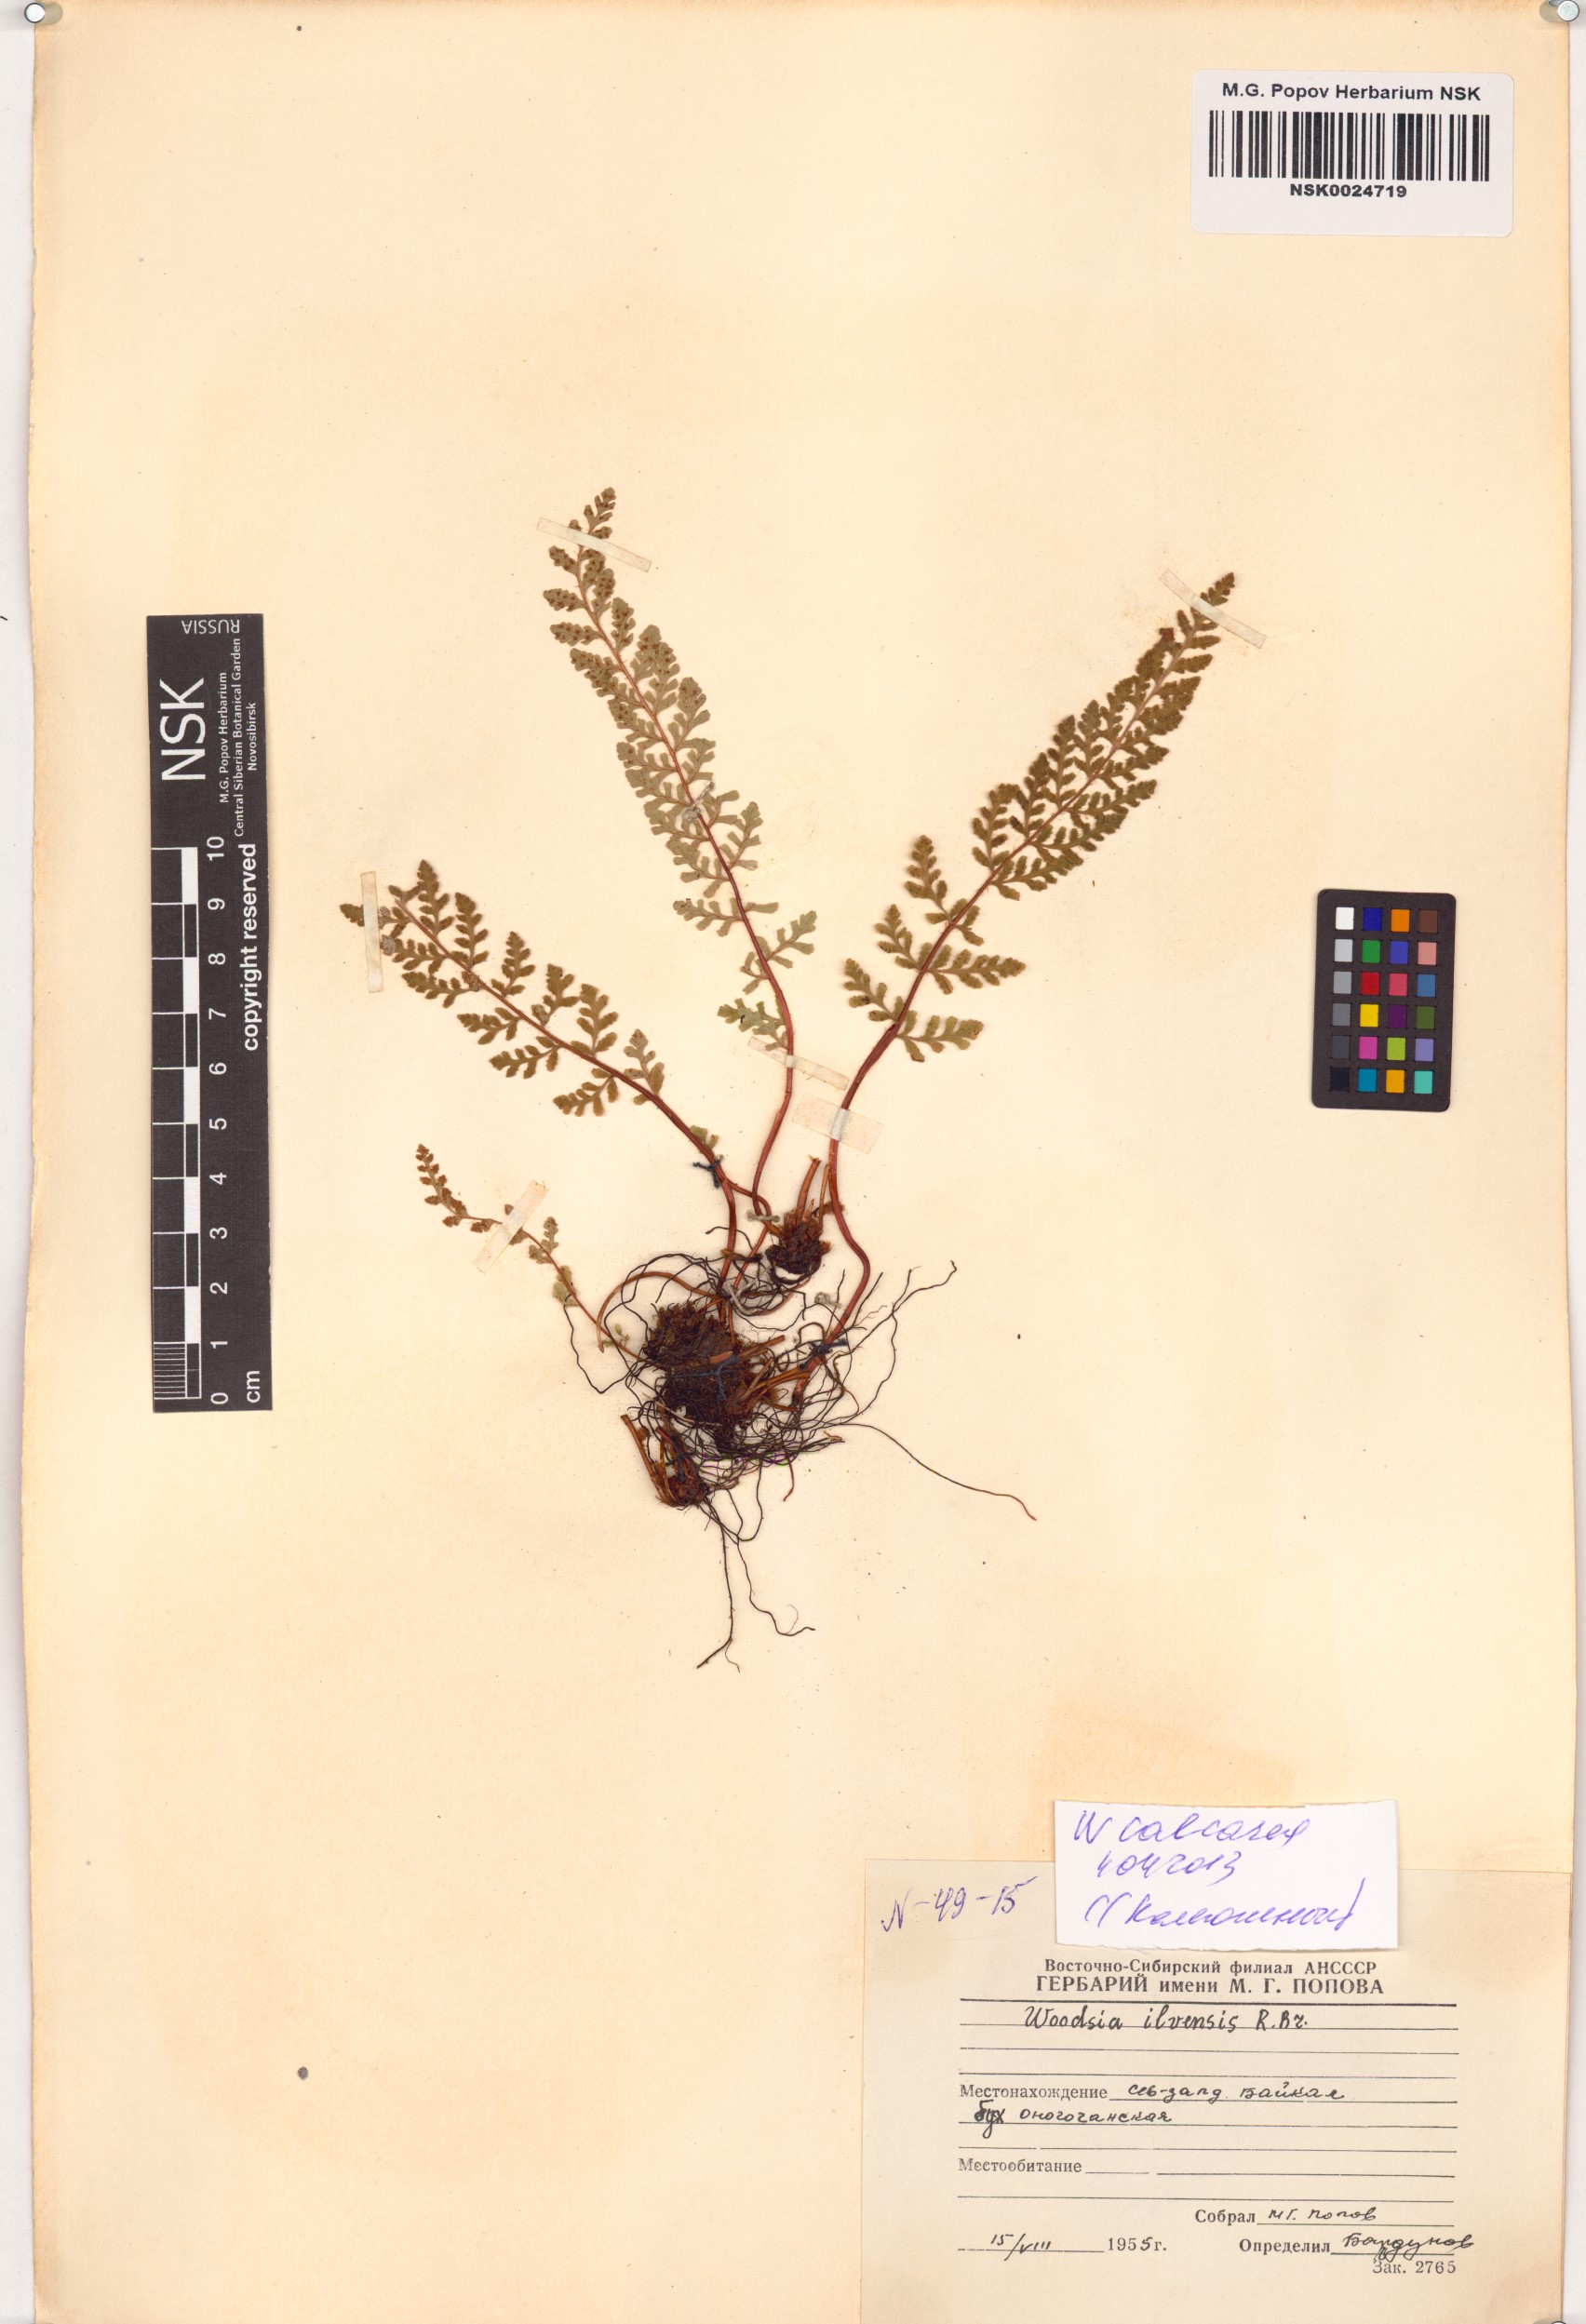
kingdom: Plantae
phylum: Tracheophyta
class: Polypodiopsida
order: Polypodiales
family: Woodsiaceae
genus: Woodsia
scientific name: Woodsia calcarea
